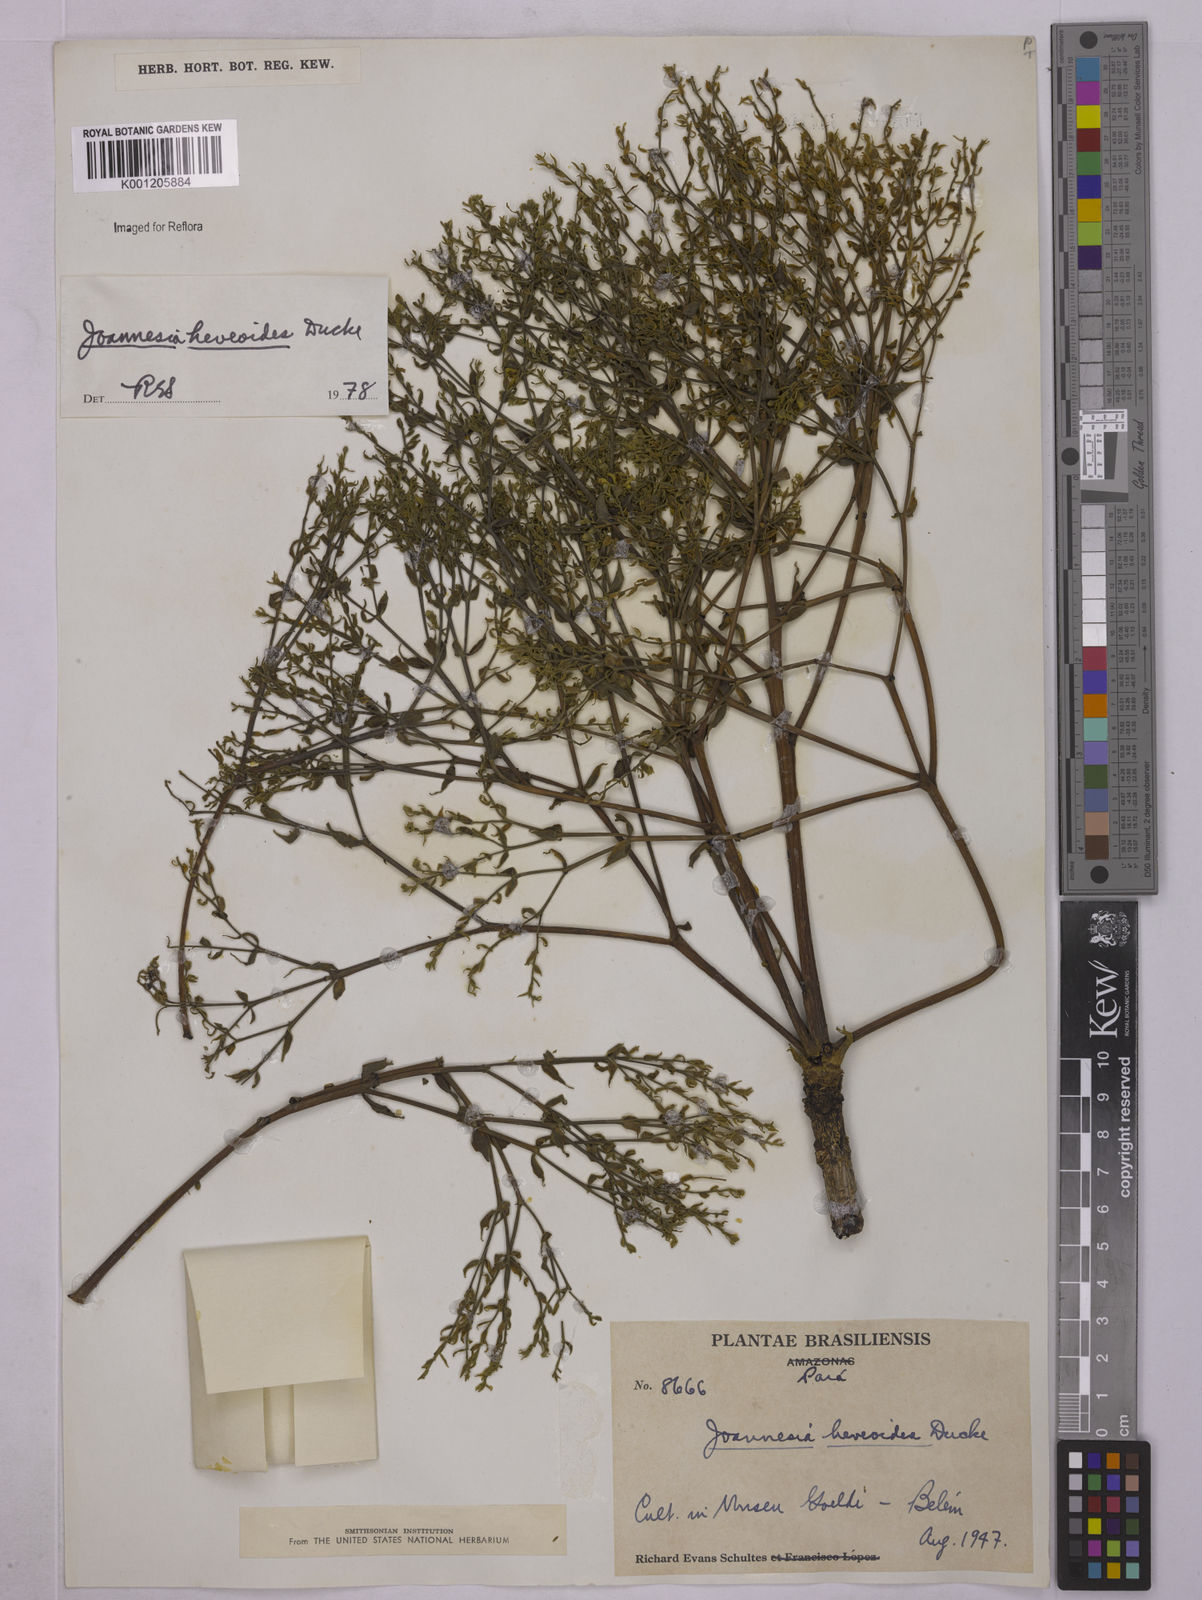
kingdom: Plantae
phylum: Tracheophyta
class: Magnoliopsida
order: Malpighiales
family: Euphorbiaceae
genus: Joannesia
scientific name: Joannesia heveoides
